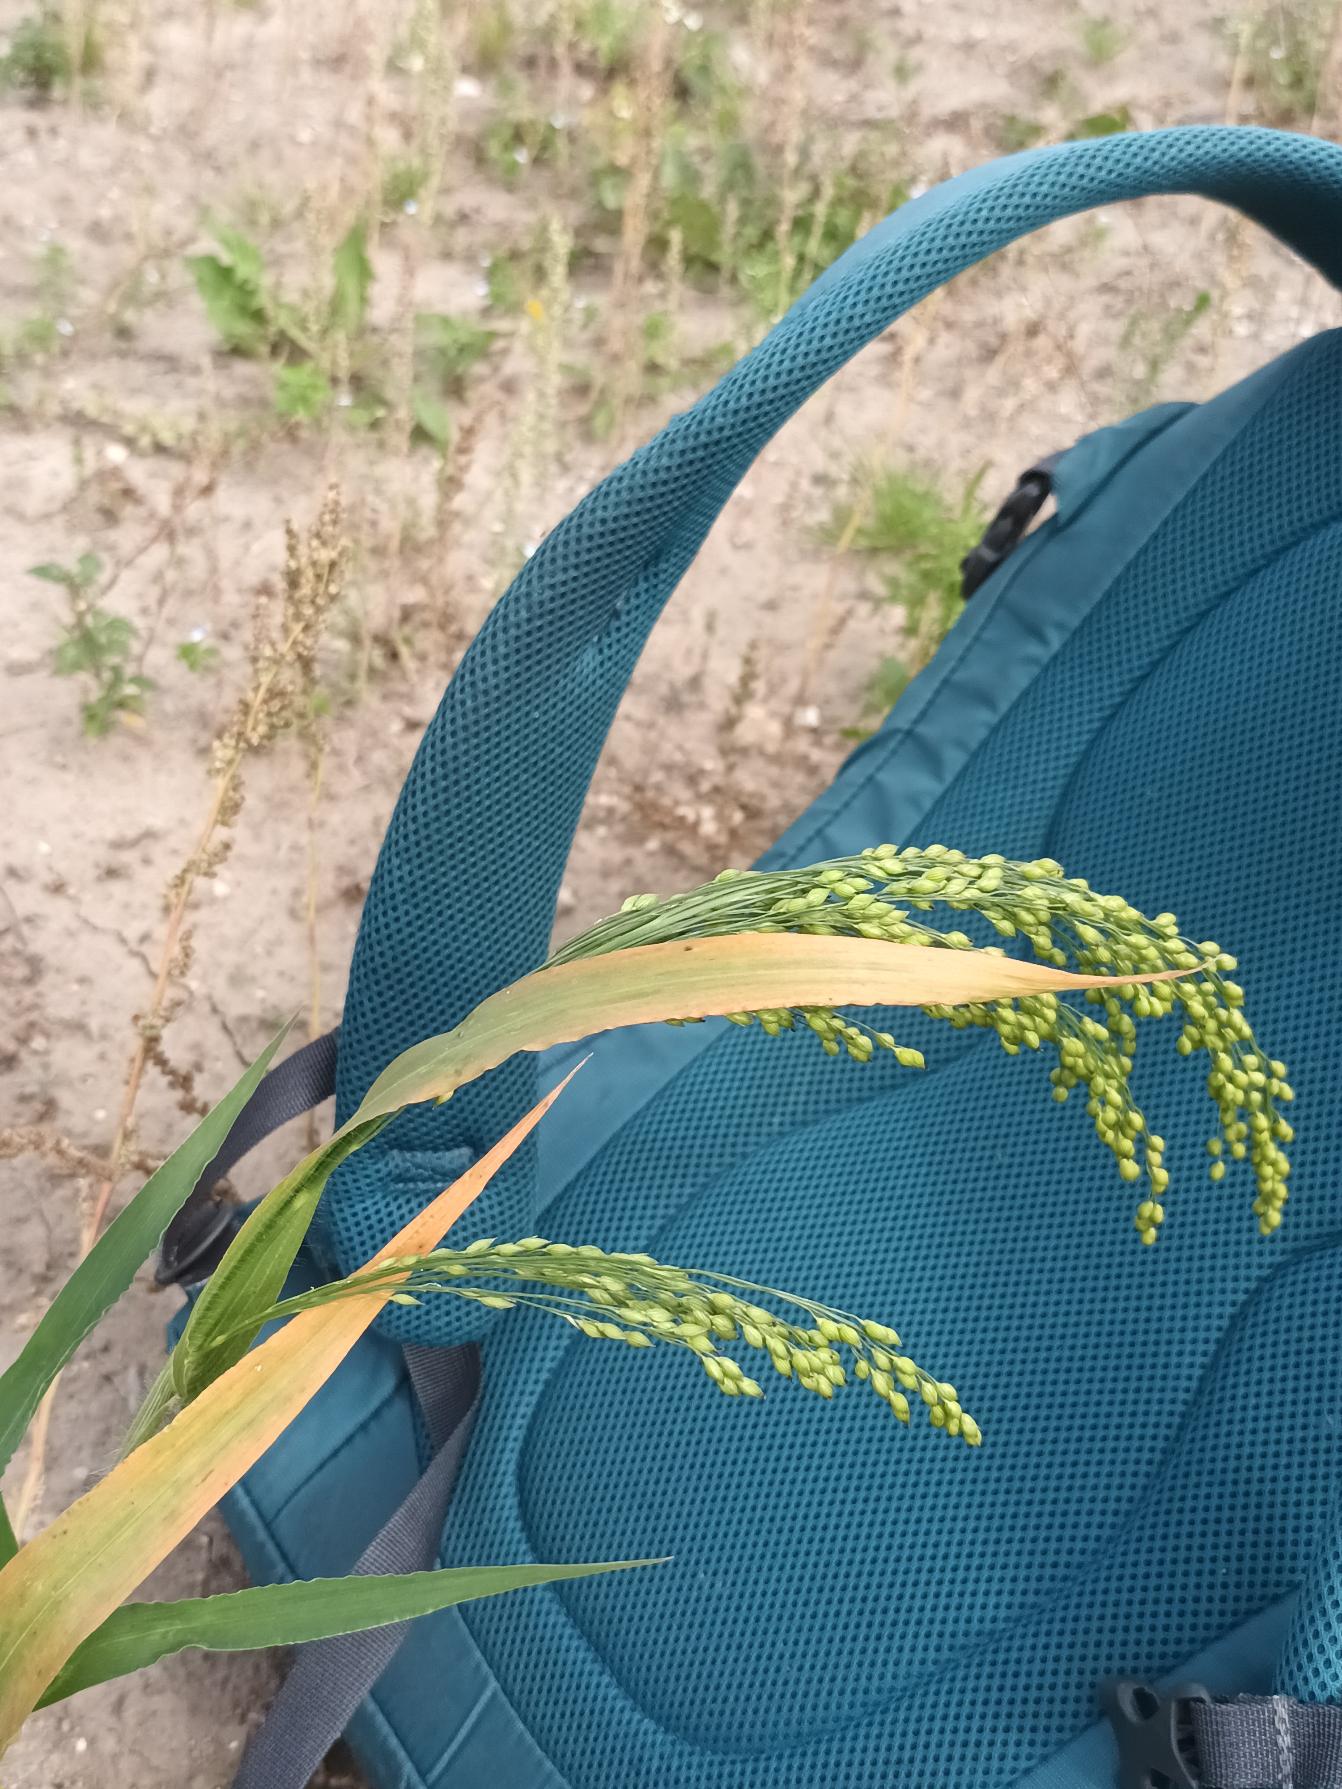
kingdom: Plantae
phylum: Tracheophyta
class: Liliopsida
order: Poales
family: Poaceae
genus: Panicum
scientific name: Panicum miliaceum
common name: Almindelig hirse
